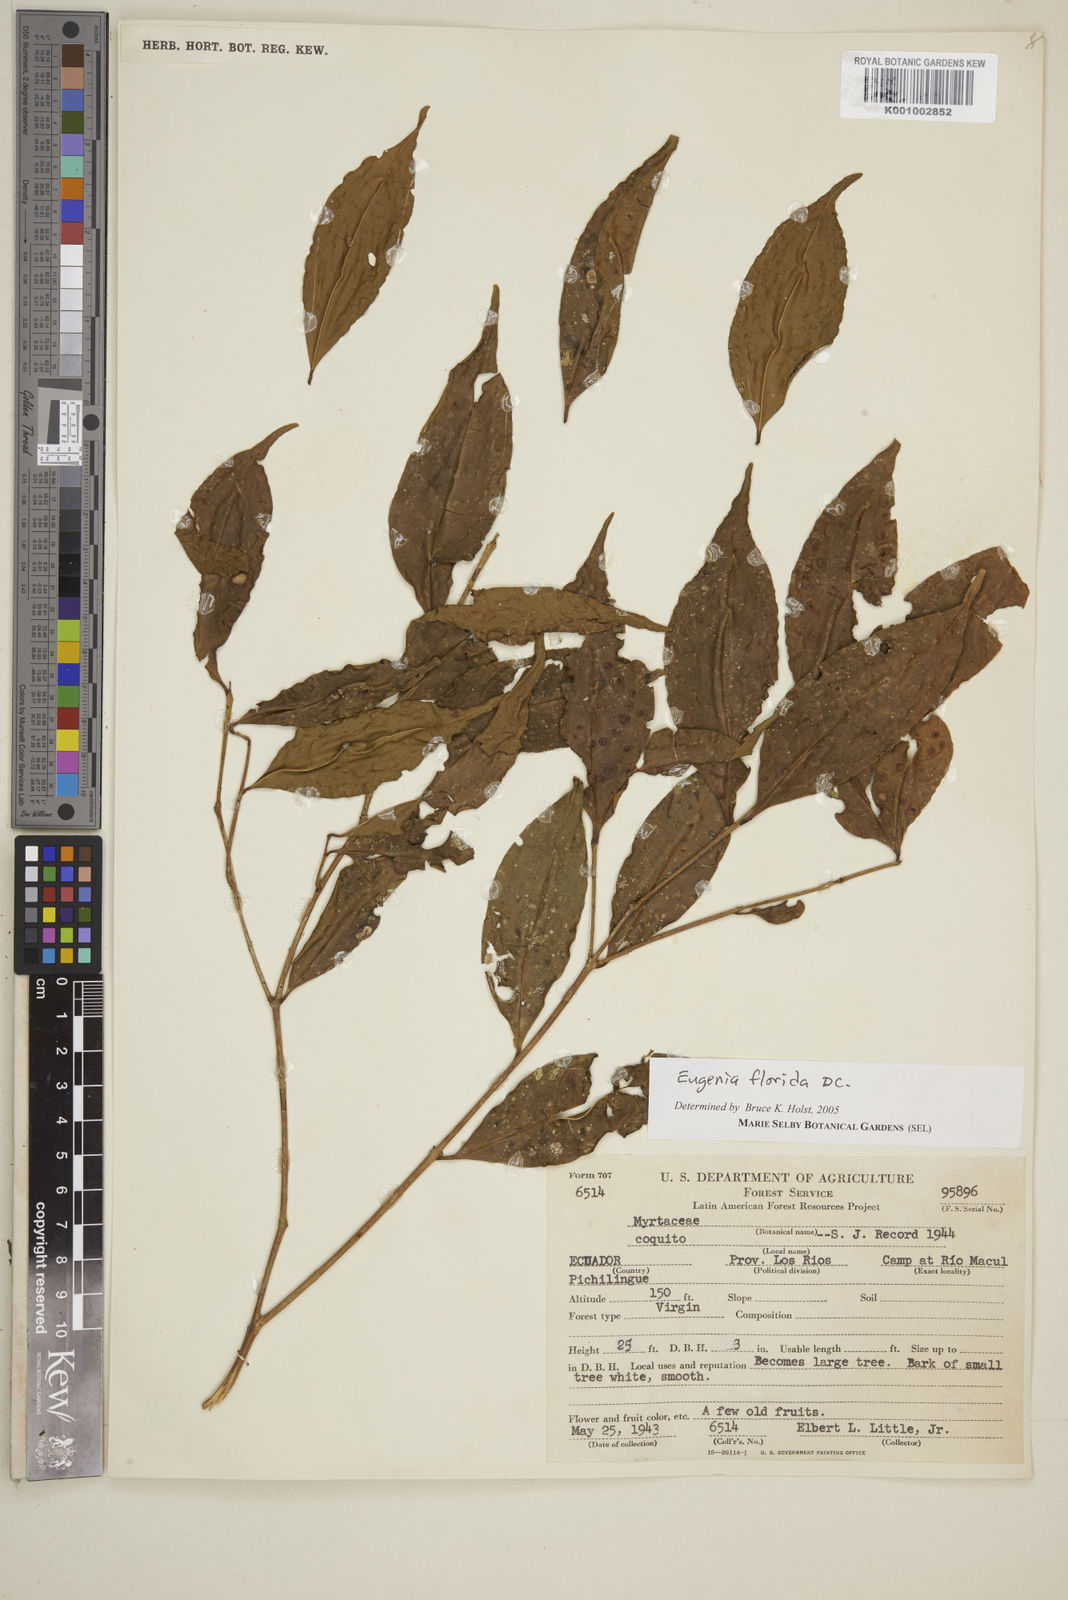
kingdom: Plantae
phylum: Tracheophyta
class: Magnoliopsida
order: Myrtales
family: Myrtaceae
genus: Eugenia
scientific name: Eugenia florida
